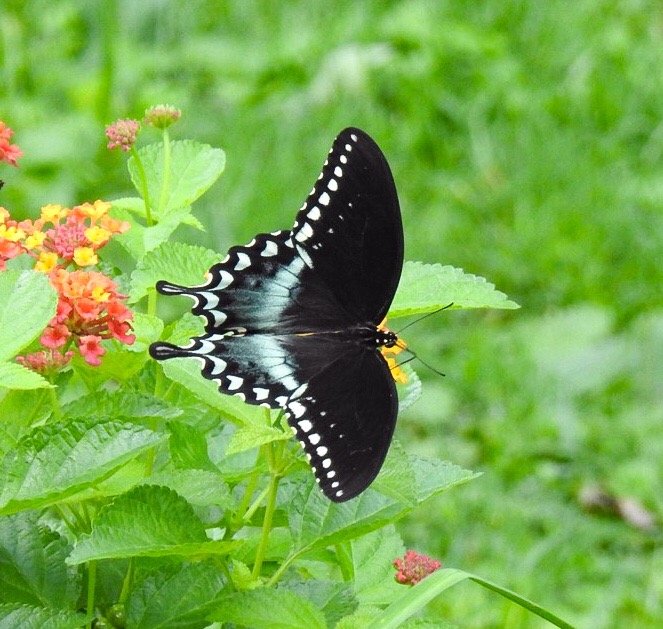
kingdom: Animalia
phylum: Arthropoda
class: Insecta
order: Lepidoptera
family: Papilionidae
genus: Pterourus
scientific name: Pterourus troilus
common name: Spicebush Swallowtail
